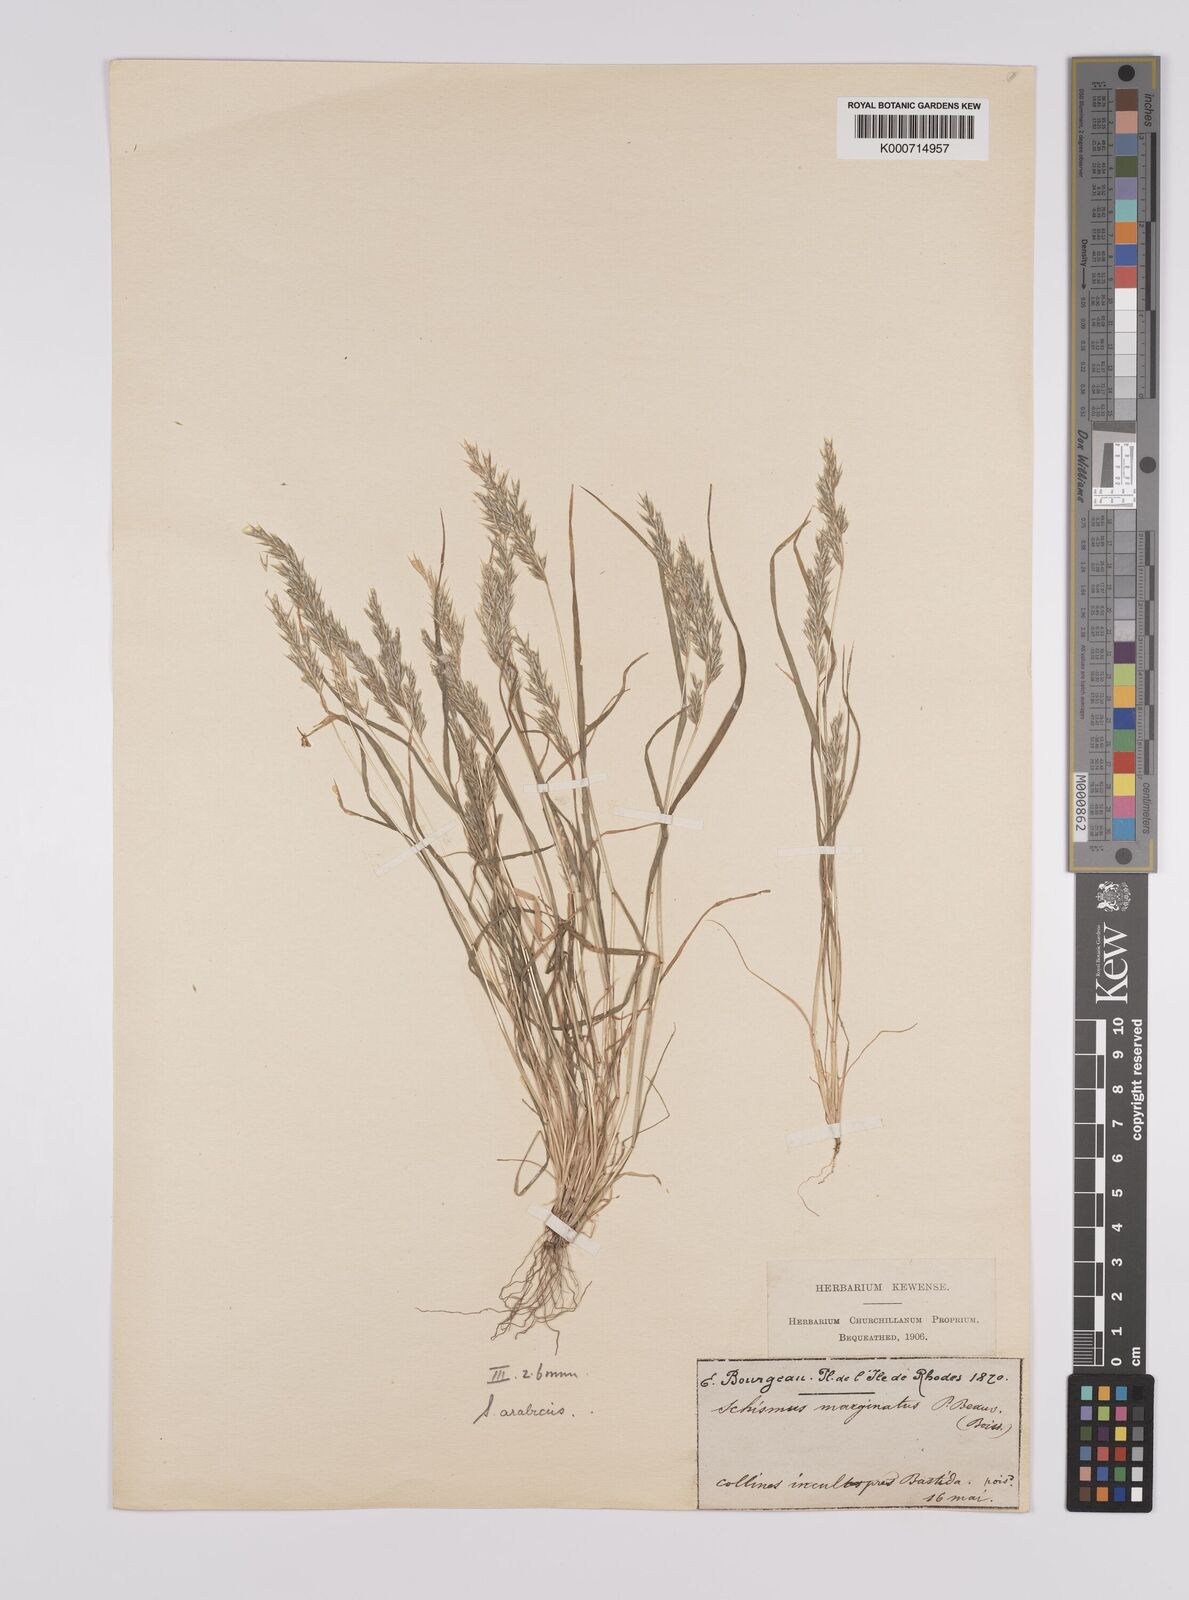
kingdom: Plantae
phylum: Tracheophyta
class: Liliopsida
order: Poales
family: Poaceae
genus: Schismus
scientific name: Schismus arabicus
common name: Arabian schismus
